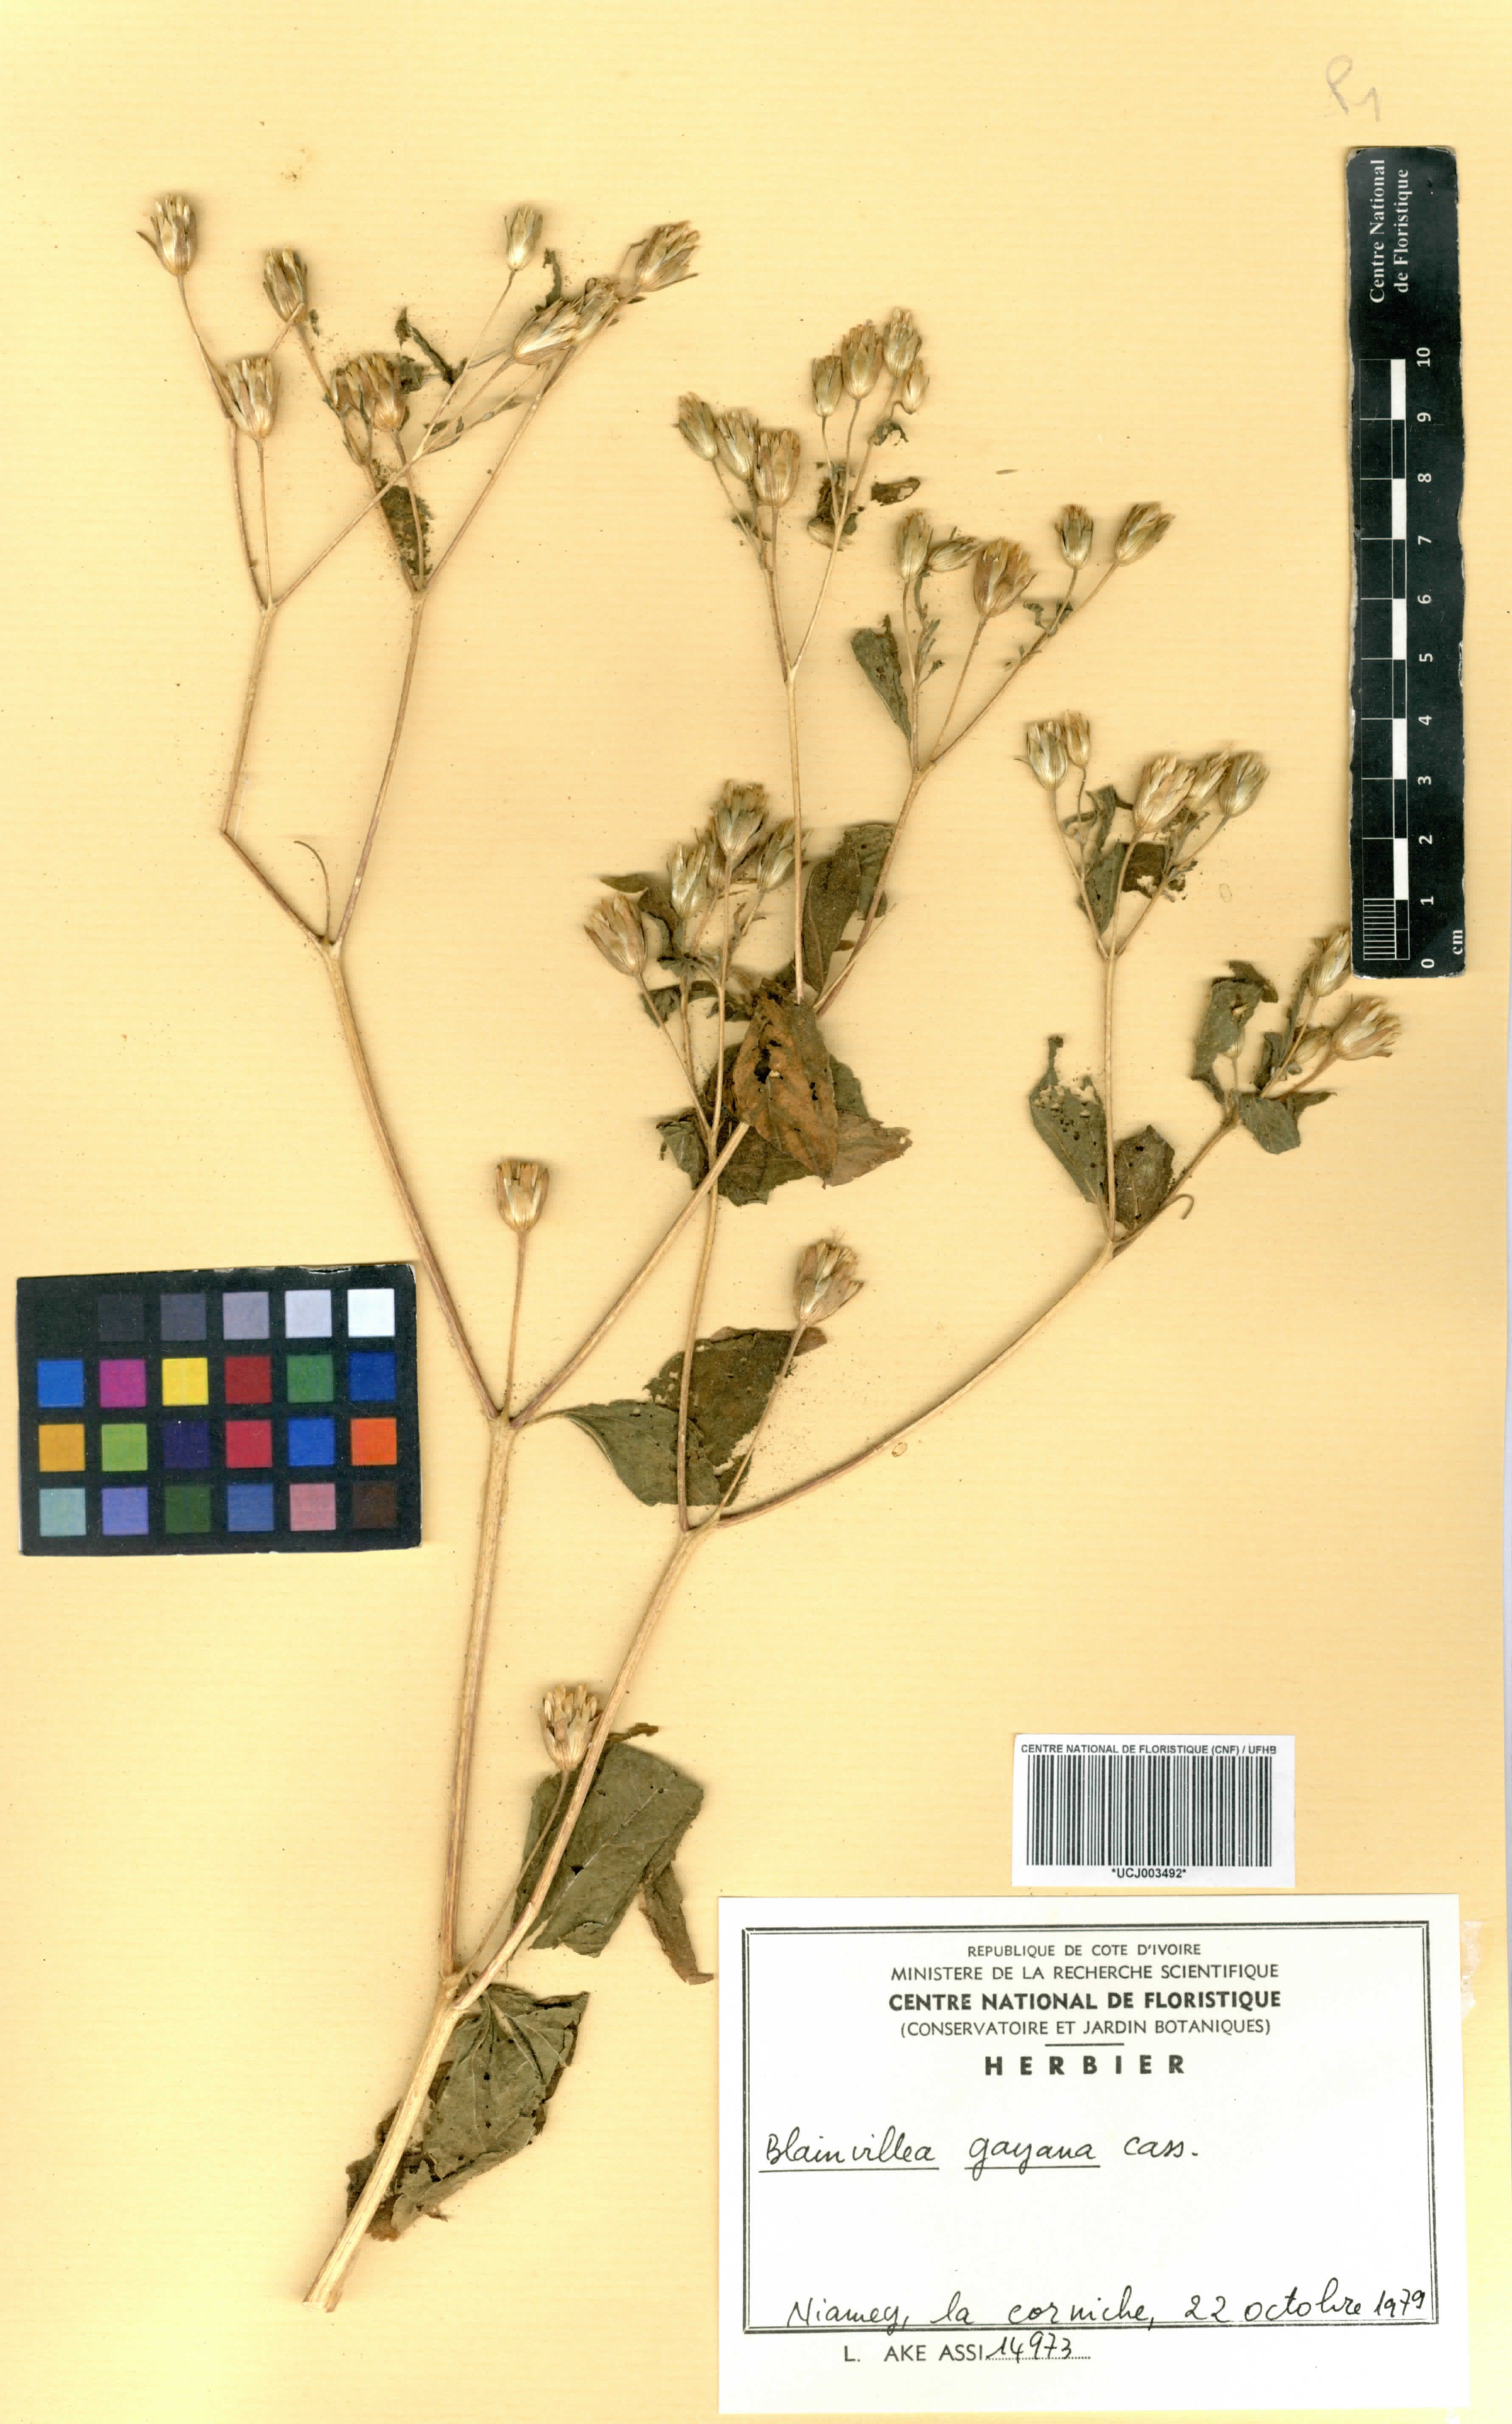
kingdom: Plantae
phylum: Tracheophyta
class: Magnoliopsida
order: Asterales
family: Asteraceae
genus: Blainvillea
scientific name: Blainvillea gayana
